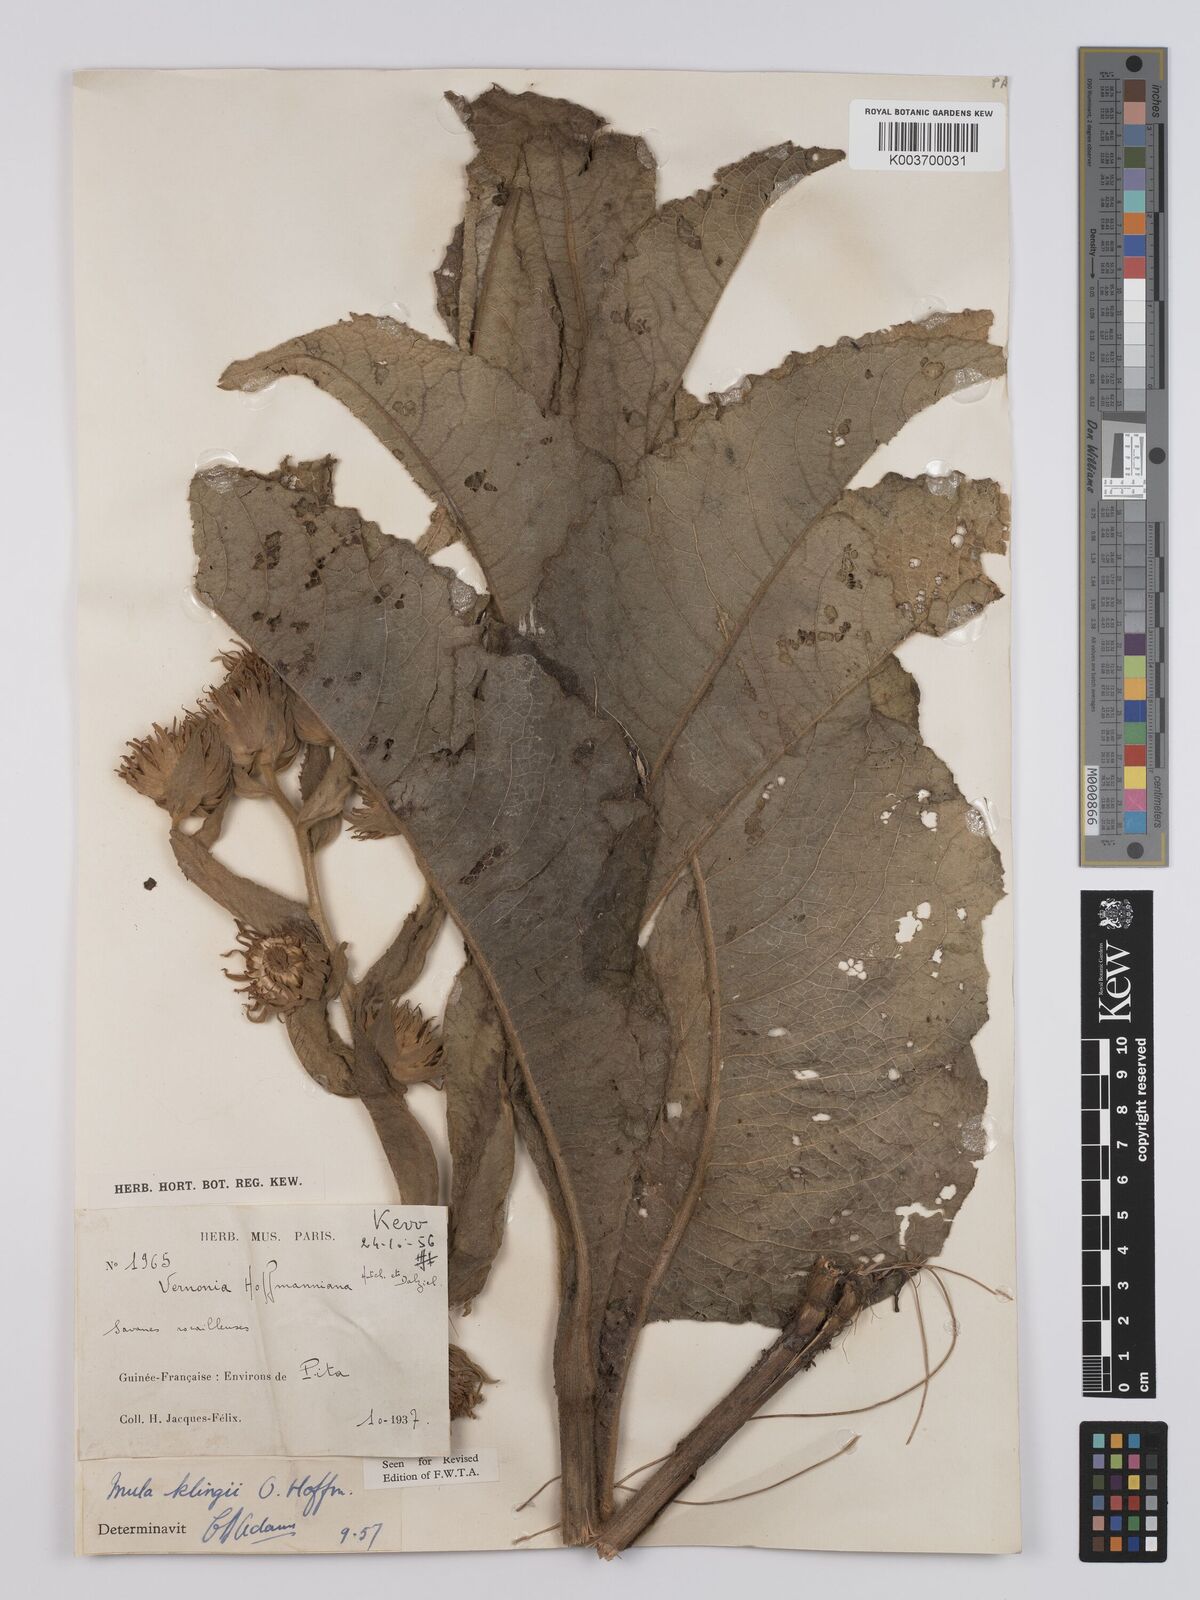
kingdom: Plantae
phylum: Tracheophyta
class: Magnoliopsida
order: Asterales
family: Asteraceae
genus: Inula
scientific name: Inula klingii
